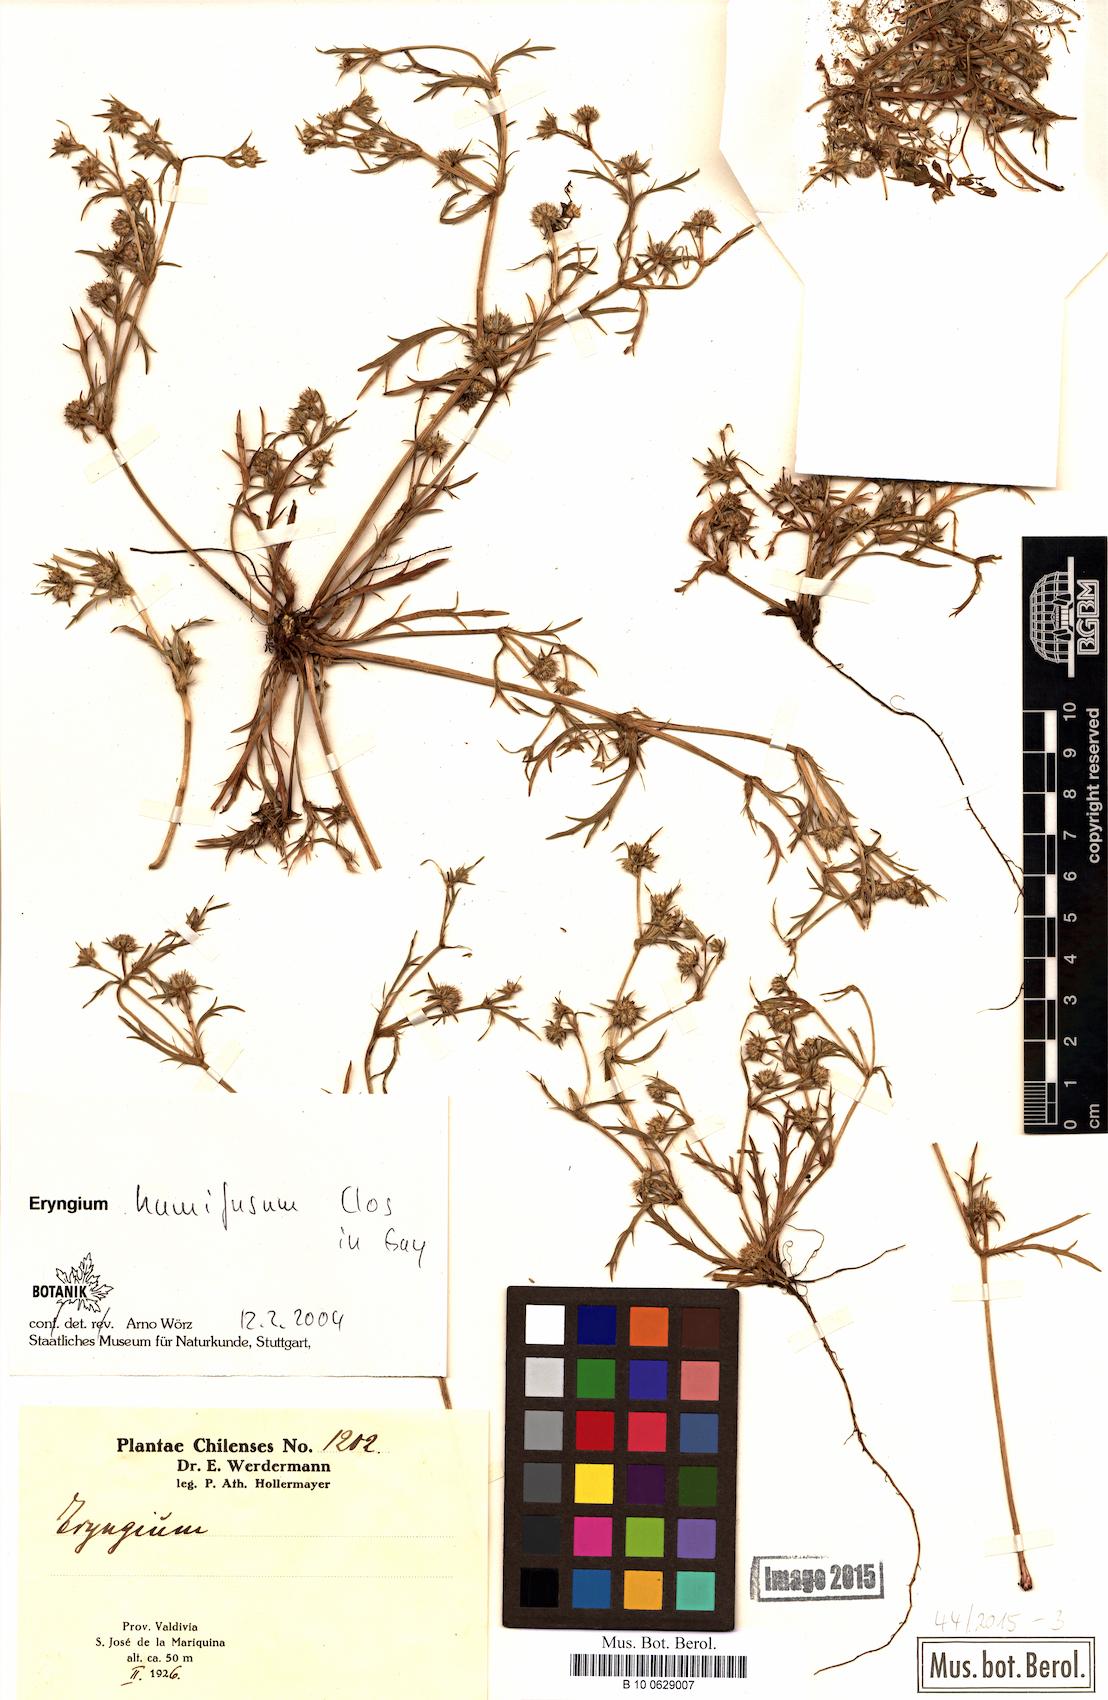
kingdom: Plantae
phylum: Tracheophyta
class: Magnoliopsida
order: Apiales
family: Apiaceae
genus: Eryngium
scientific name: Eryngium humifusum
